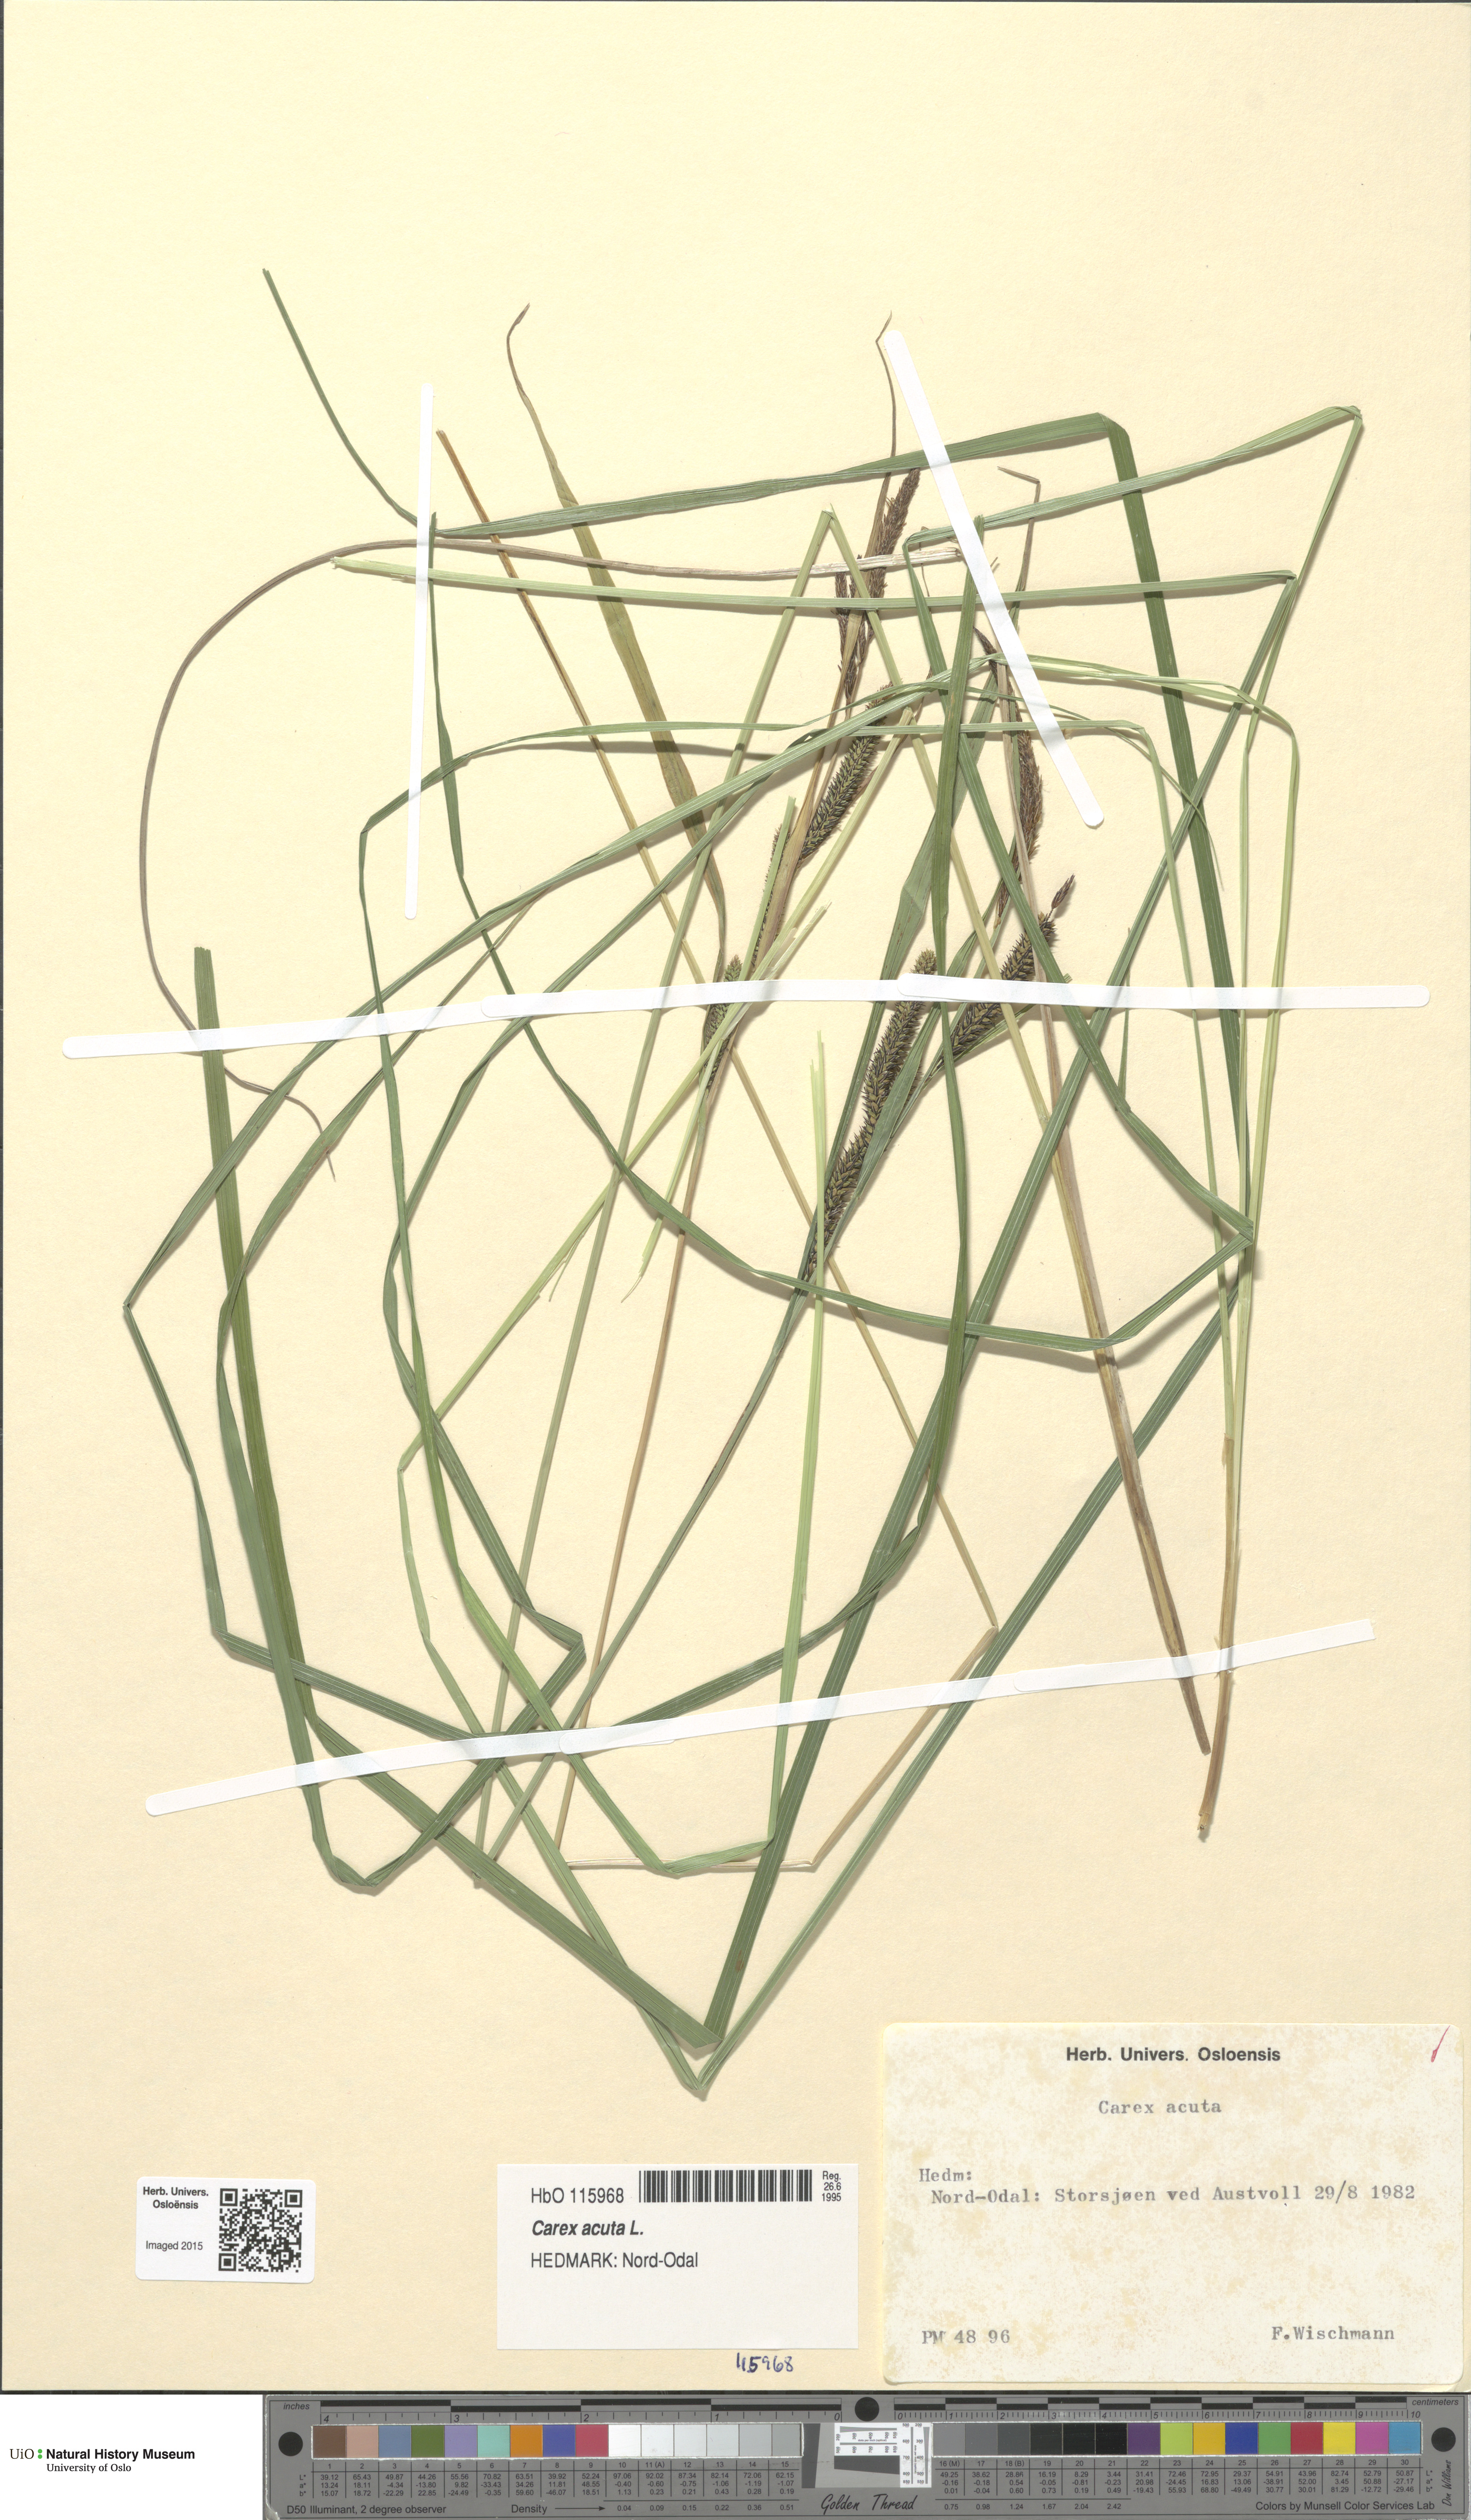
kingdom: Plantae
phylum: Tracheophyta
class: Liliopsida
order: Poales
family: Cyperaceae
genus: Carex
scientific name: Carex acuta
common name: Slender tufted-sedge
